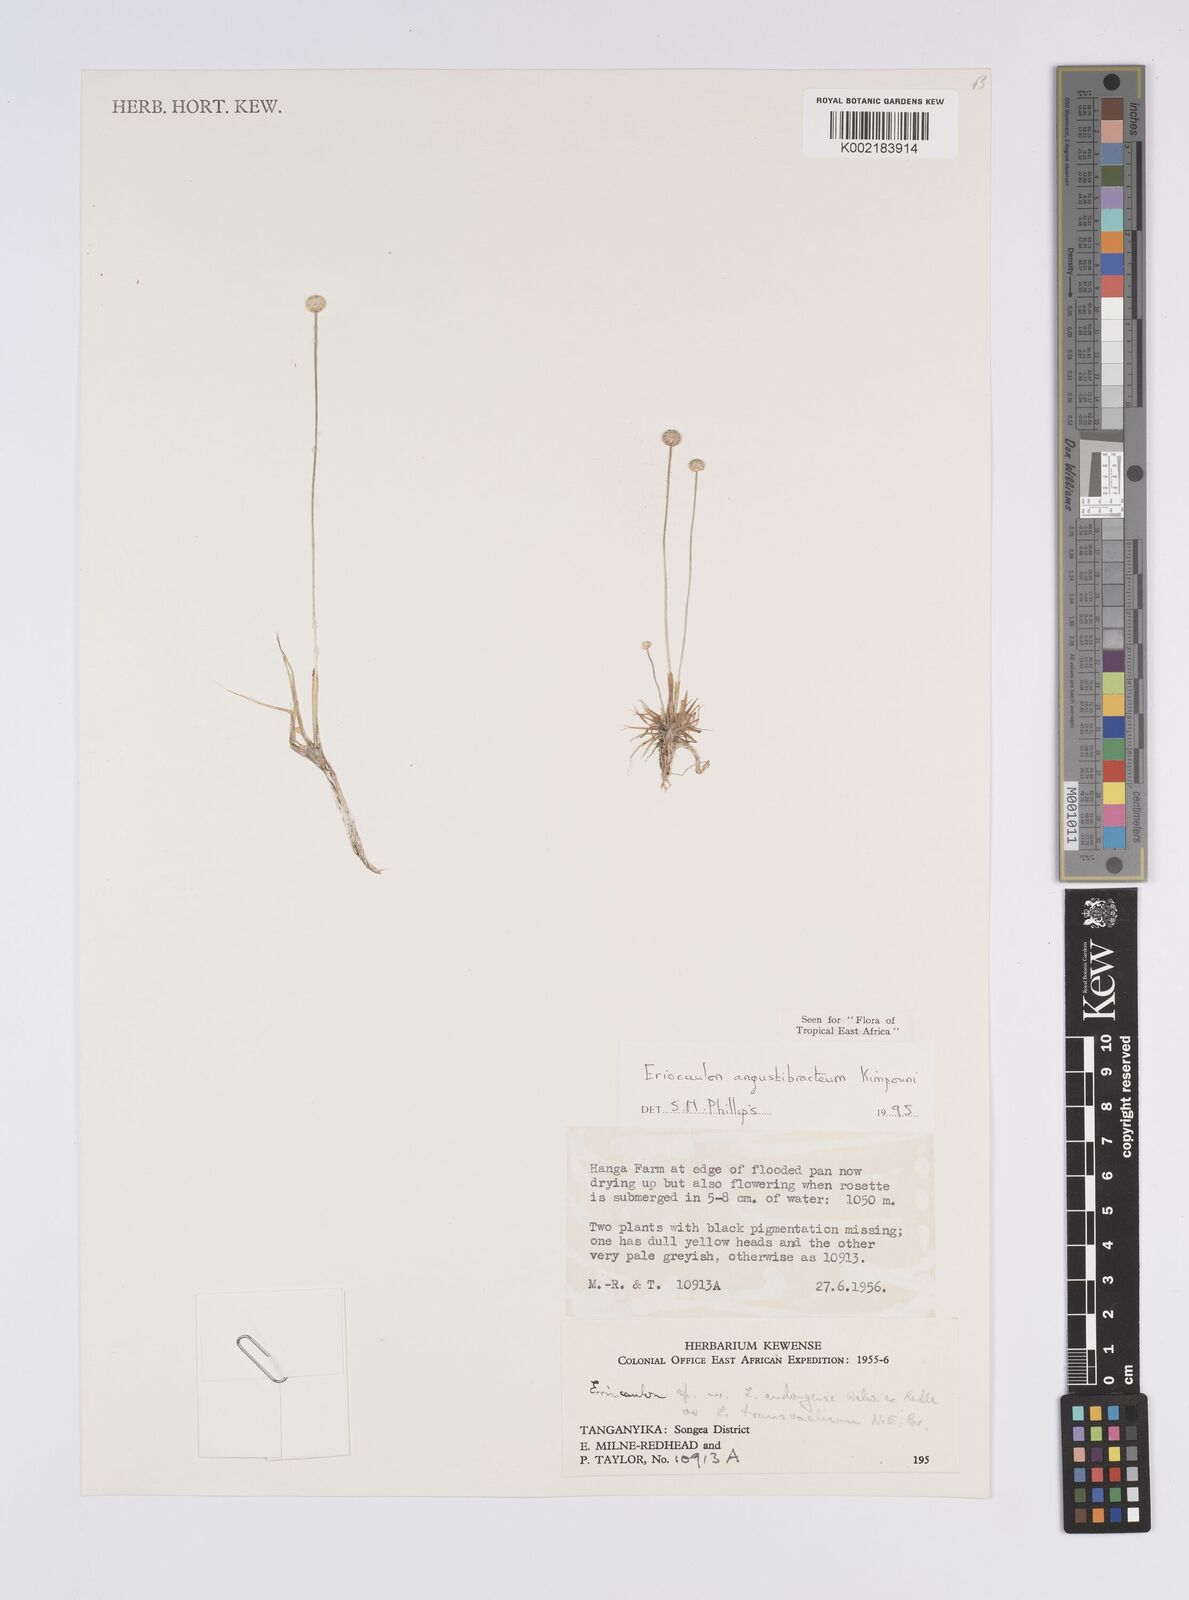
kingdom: Plantae
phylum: Tracheophyta
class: Liliopsida
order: Poales
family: Eriocaulaceae
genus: Eriocaulon
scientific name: Eriocaulon angustibracteum
